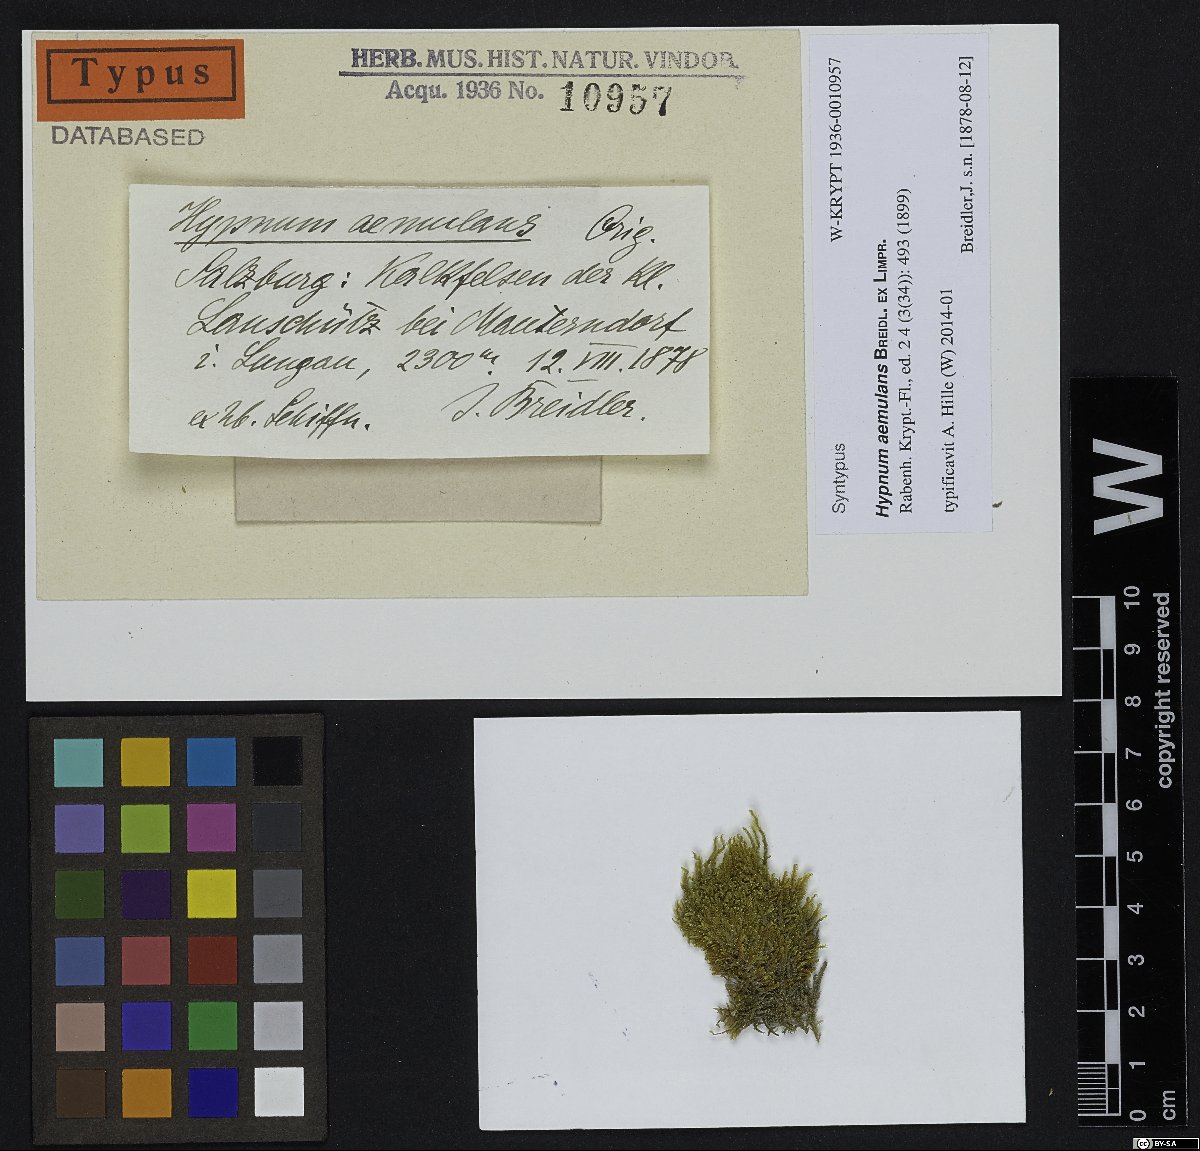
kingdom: Plantae
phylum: Bryophyta
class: Bryopsida
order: Hypnales
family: Stereodontaceae
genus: Stereodon
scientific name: Stereodon aemulans
